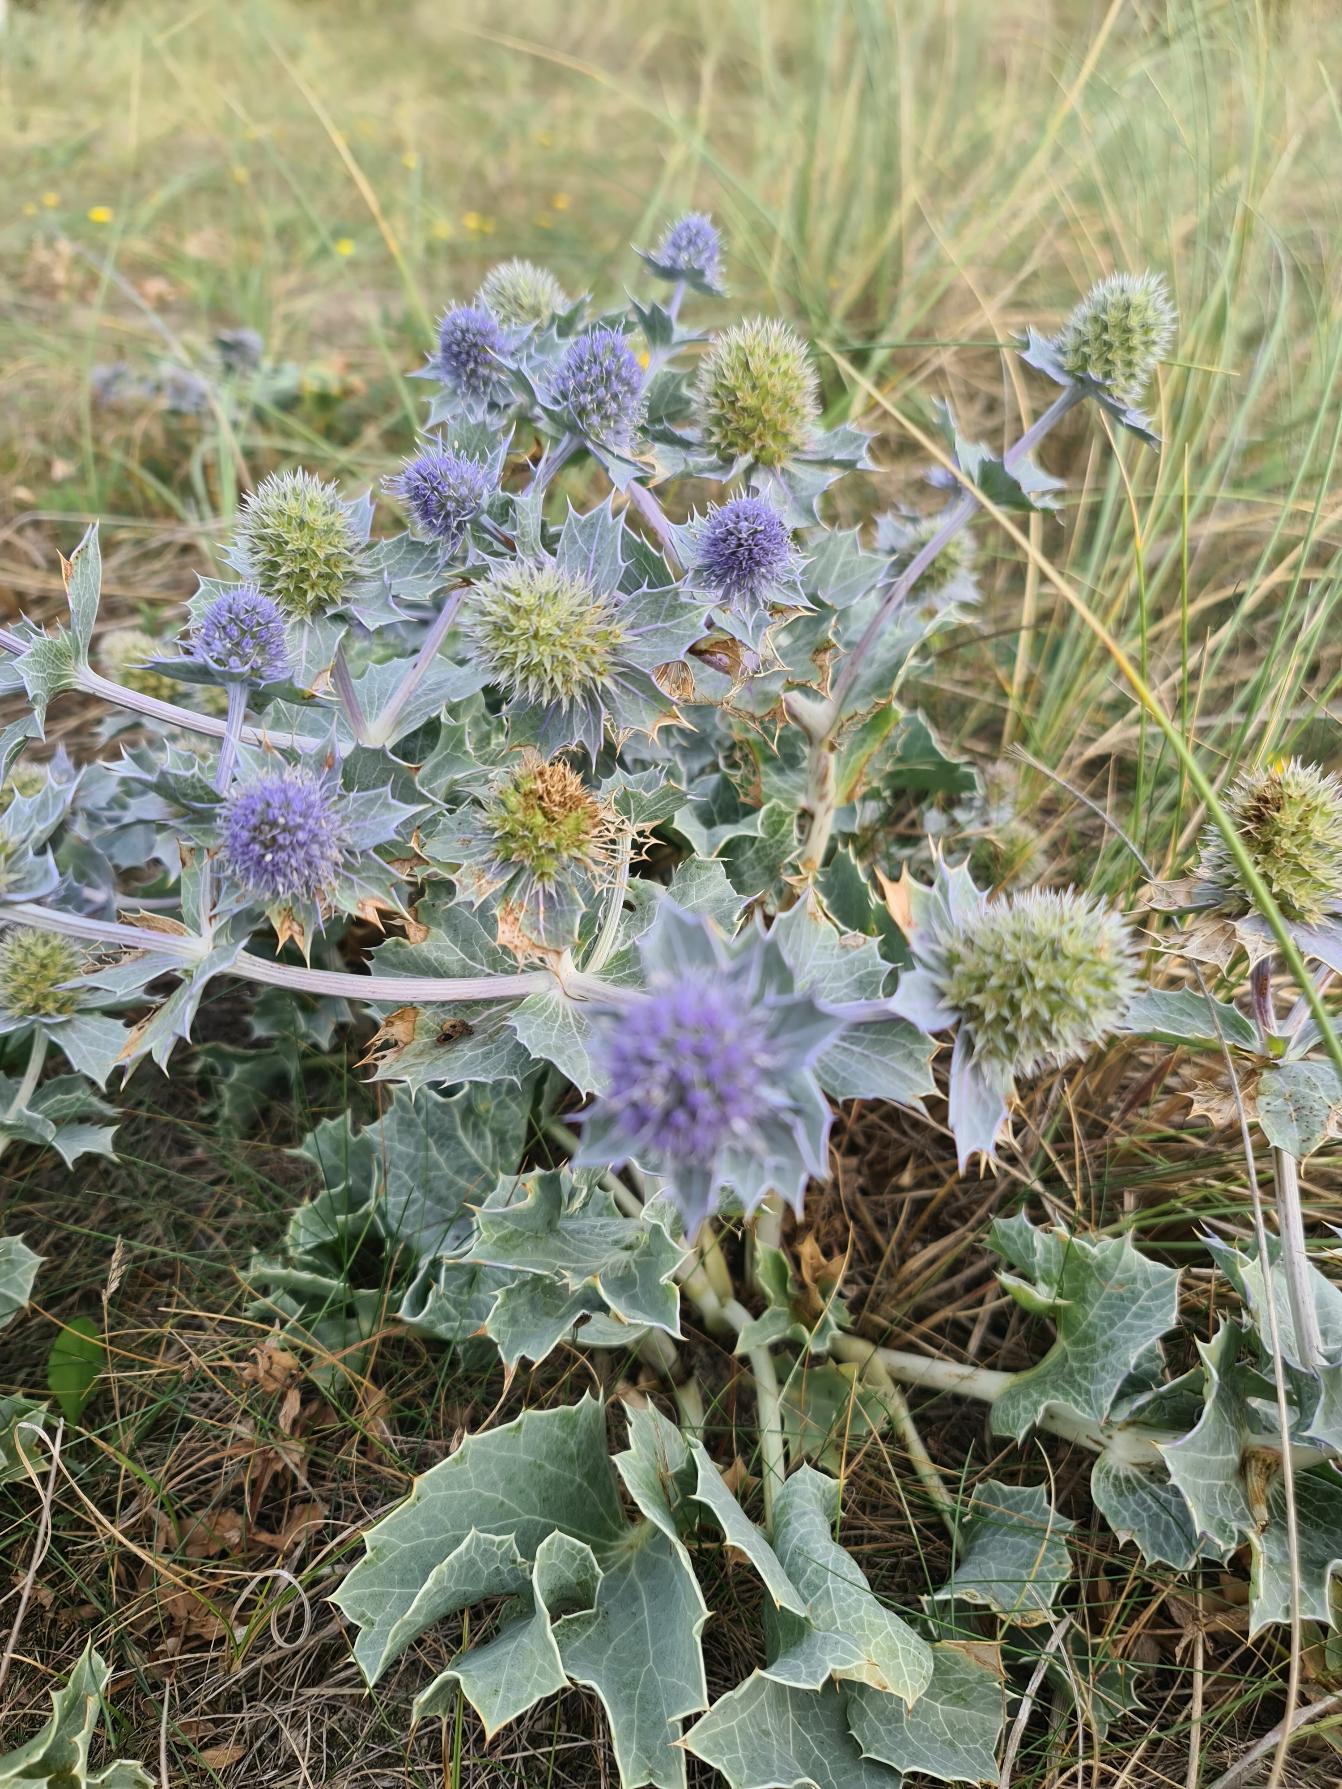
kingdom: Plantae
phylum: Tracheophyta
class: Magnoliopsida
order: Apiales
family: Apiaceae
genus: Eryngium
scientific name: Eryngium maritimum
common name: Strand-mandstro
